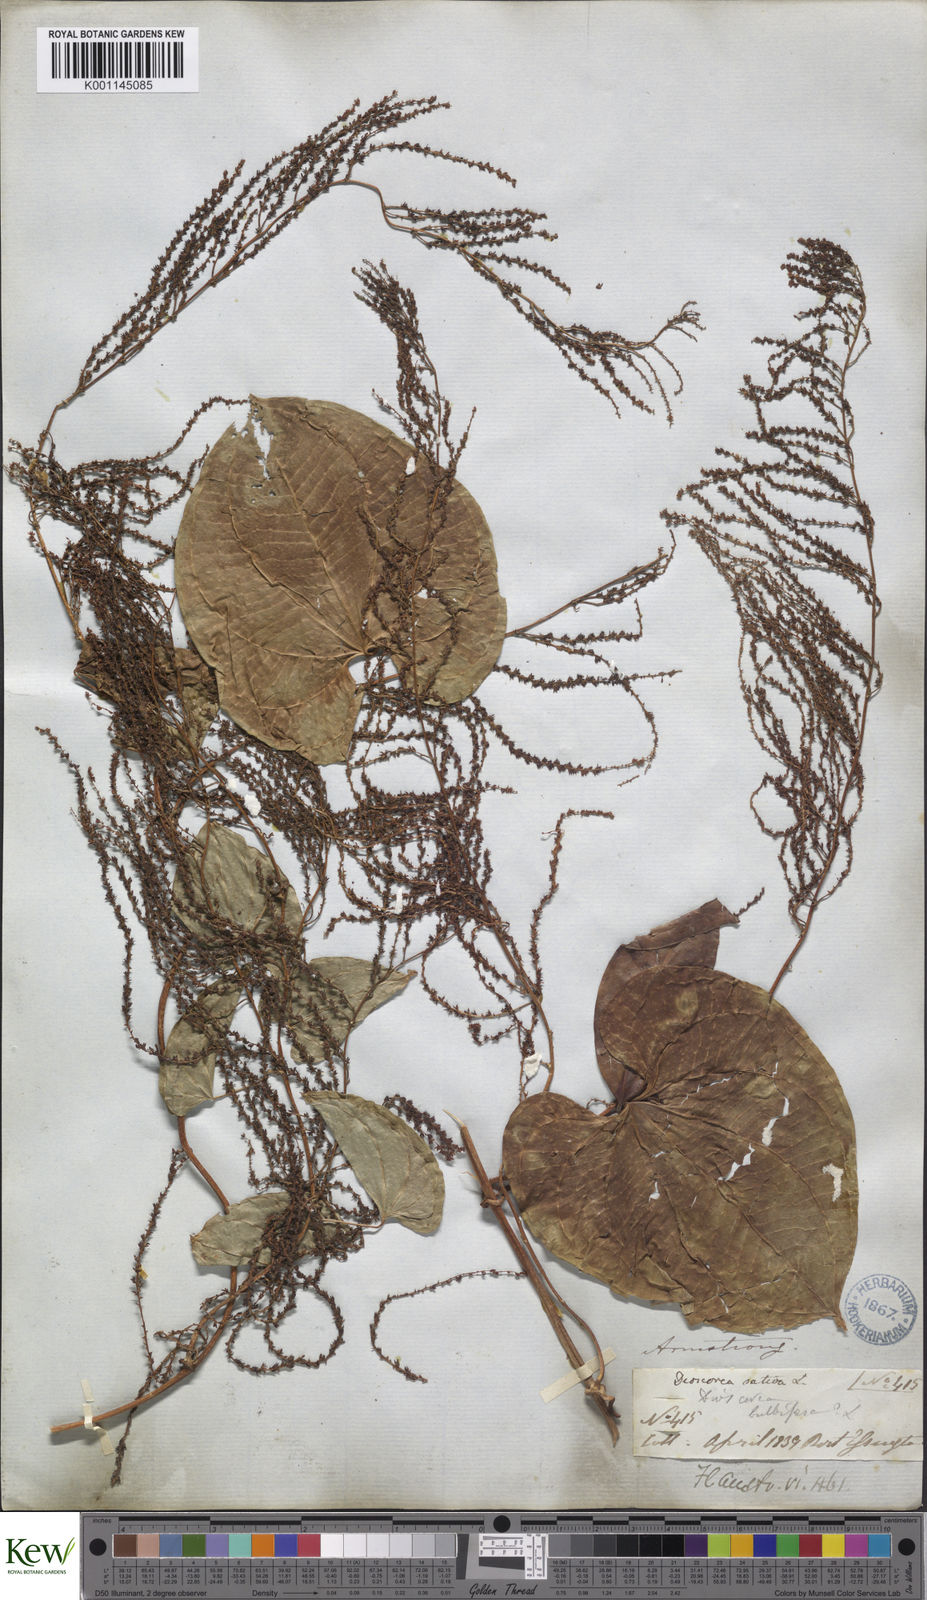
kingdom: Plantae
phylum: Tracheophyta
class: Liliopsida
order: Dioscoreales
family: Dioscoreaceae
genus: Dioscorea
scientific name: Dioscorea bulbifera
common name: Air yam
